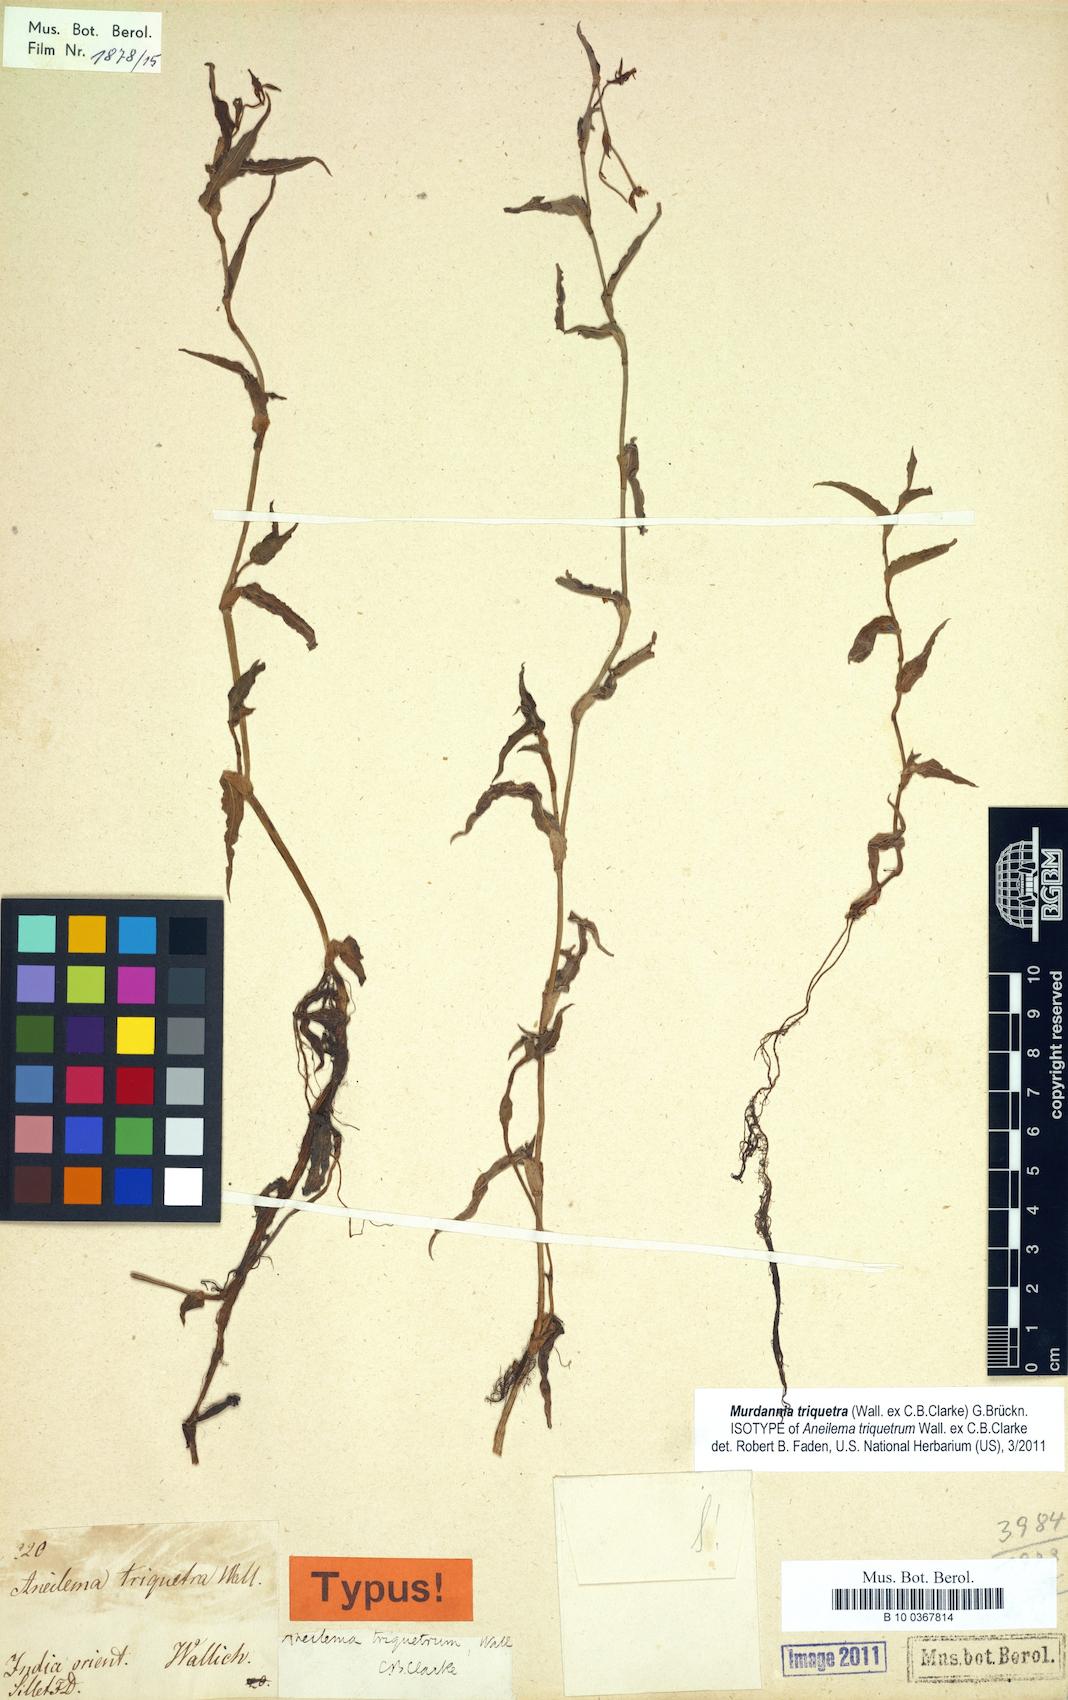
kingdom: Plantae
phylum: Tracheophyta
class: Liliopsida
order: Commelinales
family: Commelinaceae
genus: Aneilema
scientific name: Aneilema triquetrum
